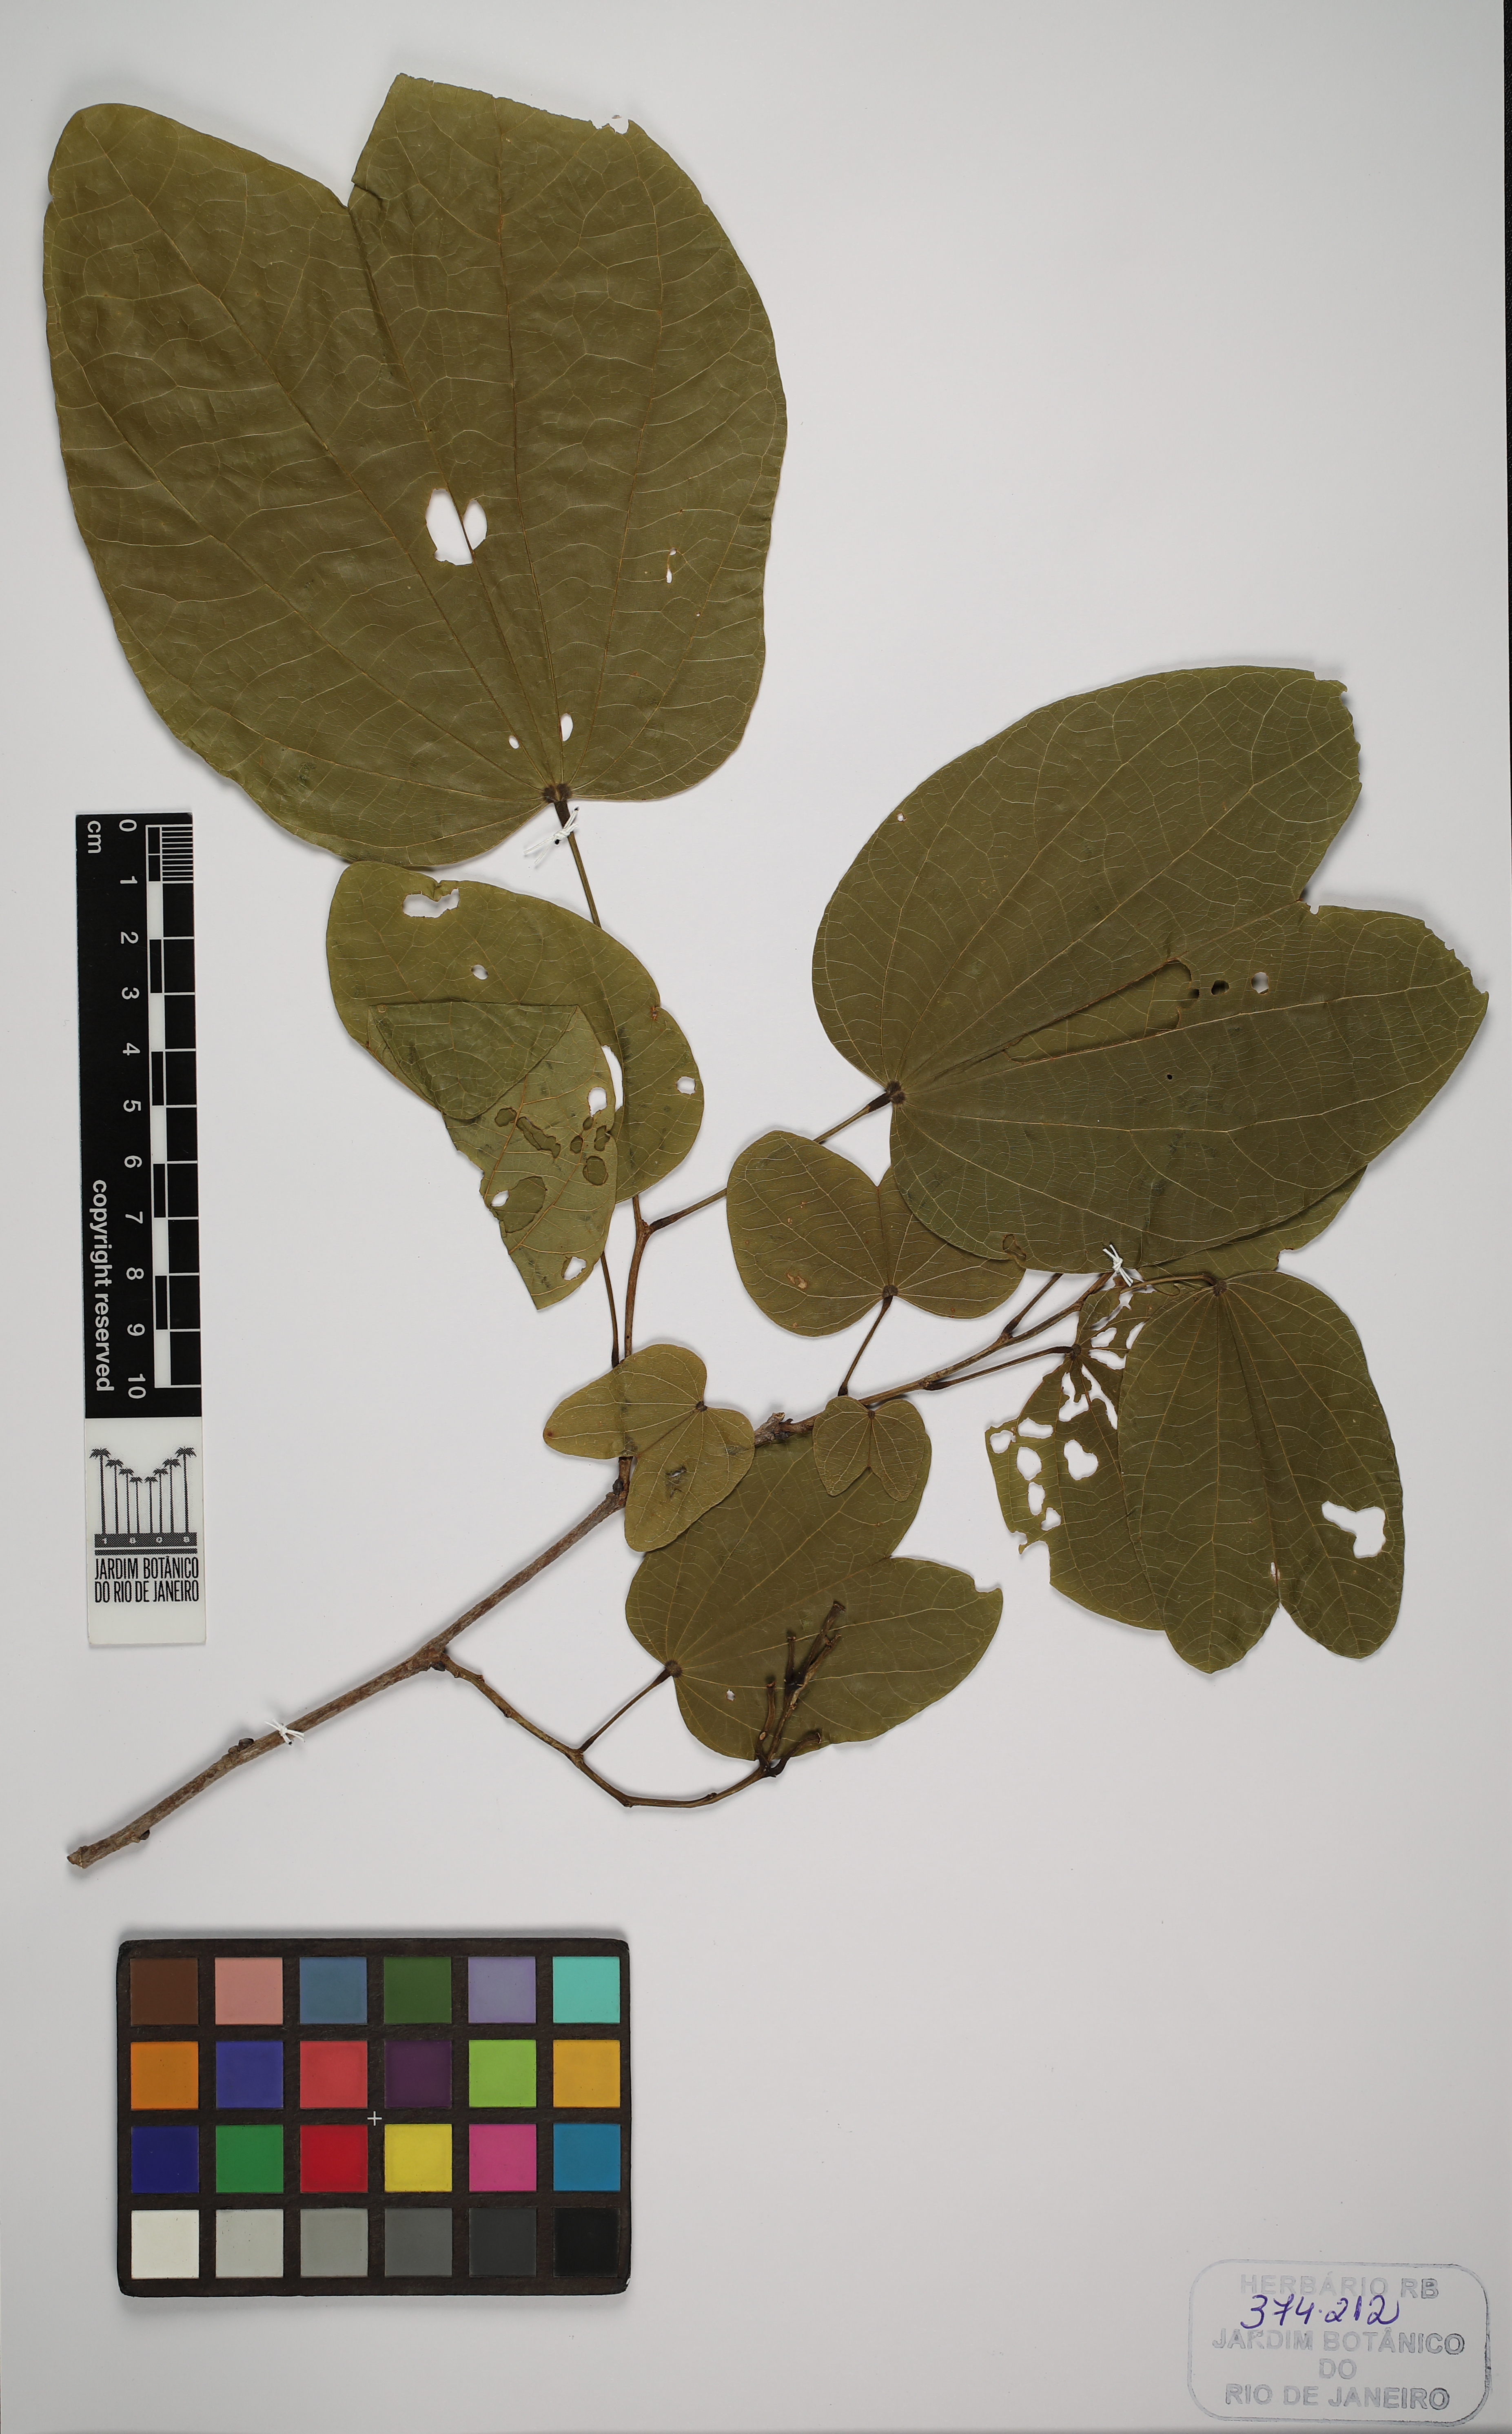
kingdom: Plantae
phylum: Tracheophyta
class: Magnoliopsida
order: Fabales
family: Fabaceae
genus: Bauhinia
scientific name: Bauhinia
